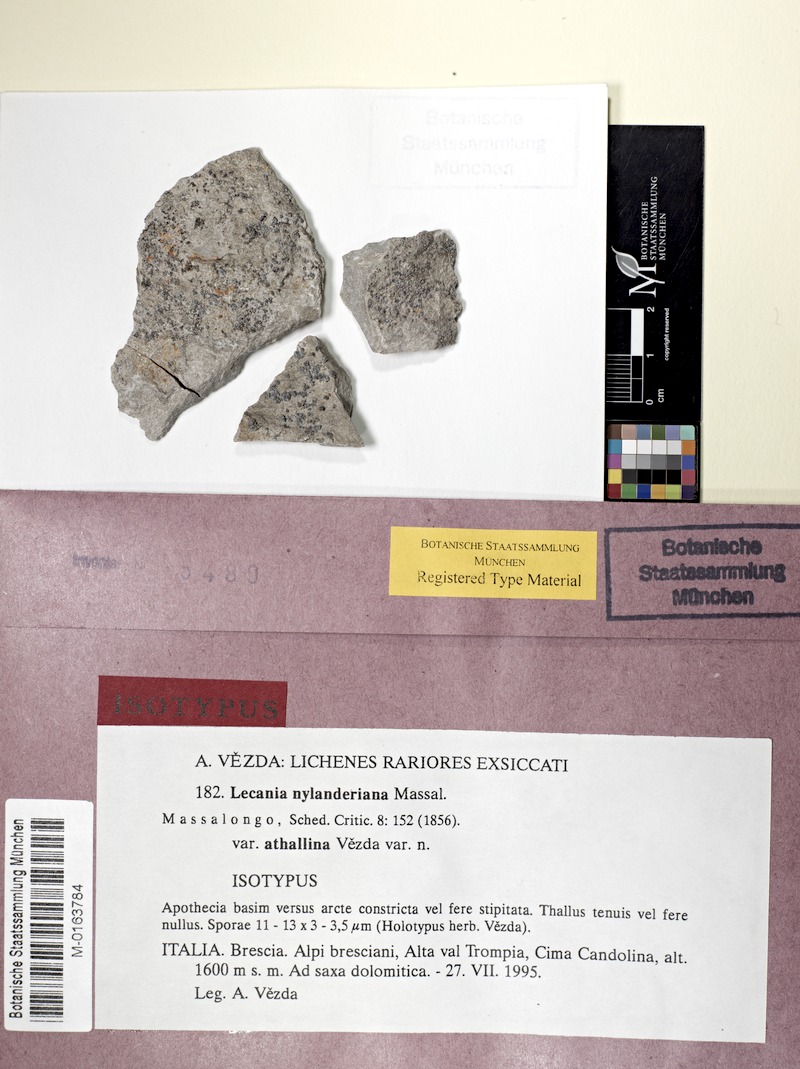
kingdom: Fungi
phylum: Ascomycota
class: Lecanoromycetes
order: Lecanorales
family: Ramalinaceae
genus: Lecania
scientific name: Lecania nylanderiana
